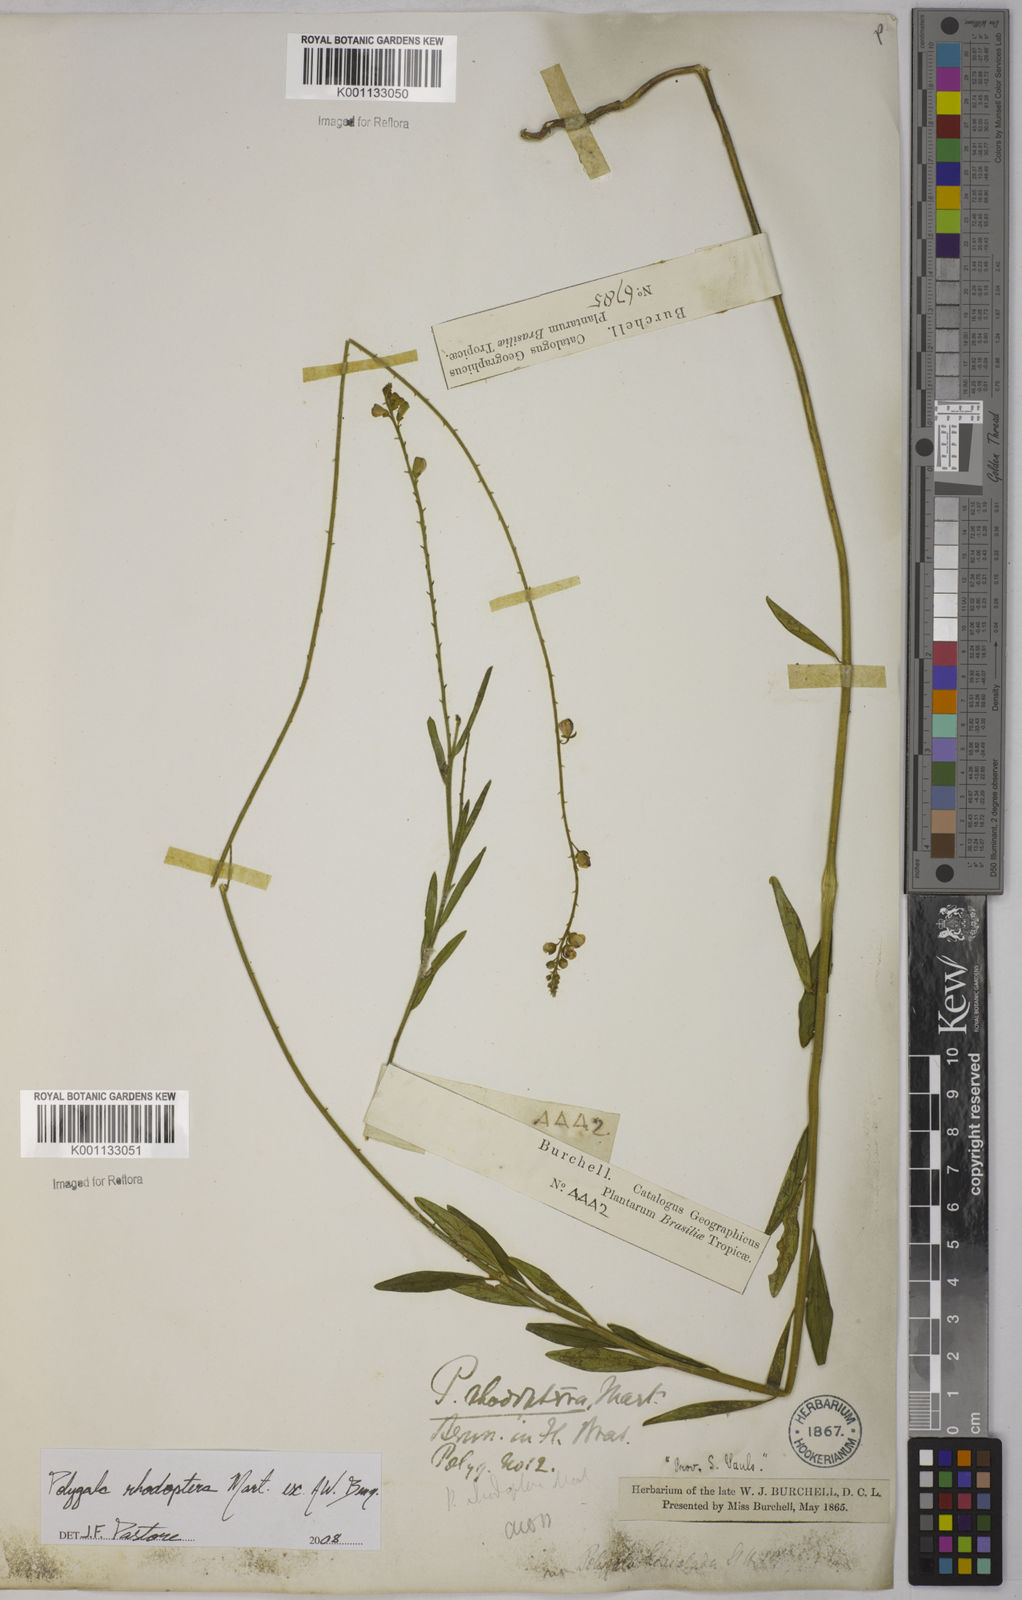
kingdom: Plantae
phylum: Tracheophyta
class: Magnoliopsida
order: Fabales
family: Polygalaceae
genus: Asemeia
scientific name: Asemeia rhodoptera
